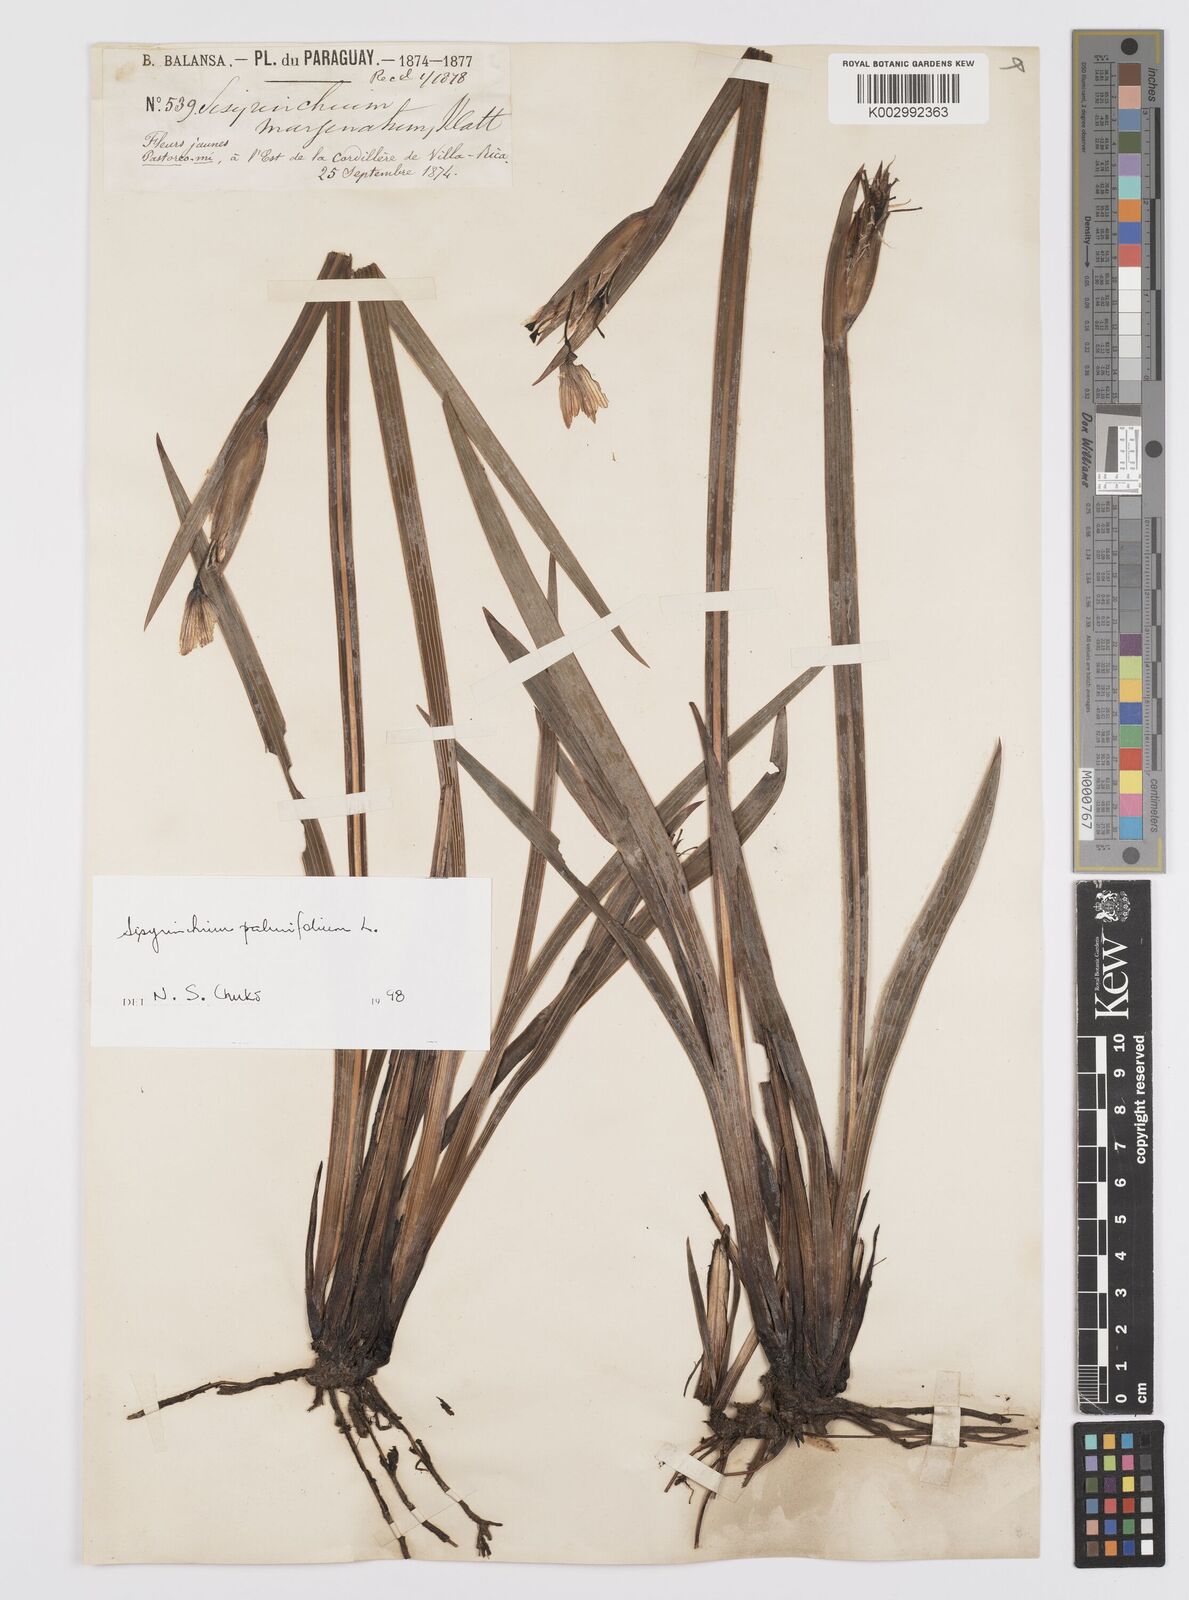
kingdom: Plantae
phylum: Tracheophyta
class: Liliopsida
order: Asparagales
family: Iridaceae
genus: Sisyrinchium
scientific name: Sisyrinchium palmifolium
